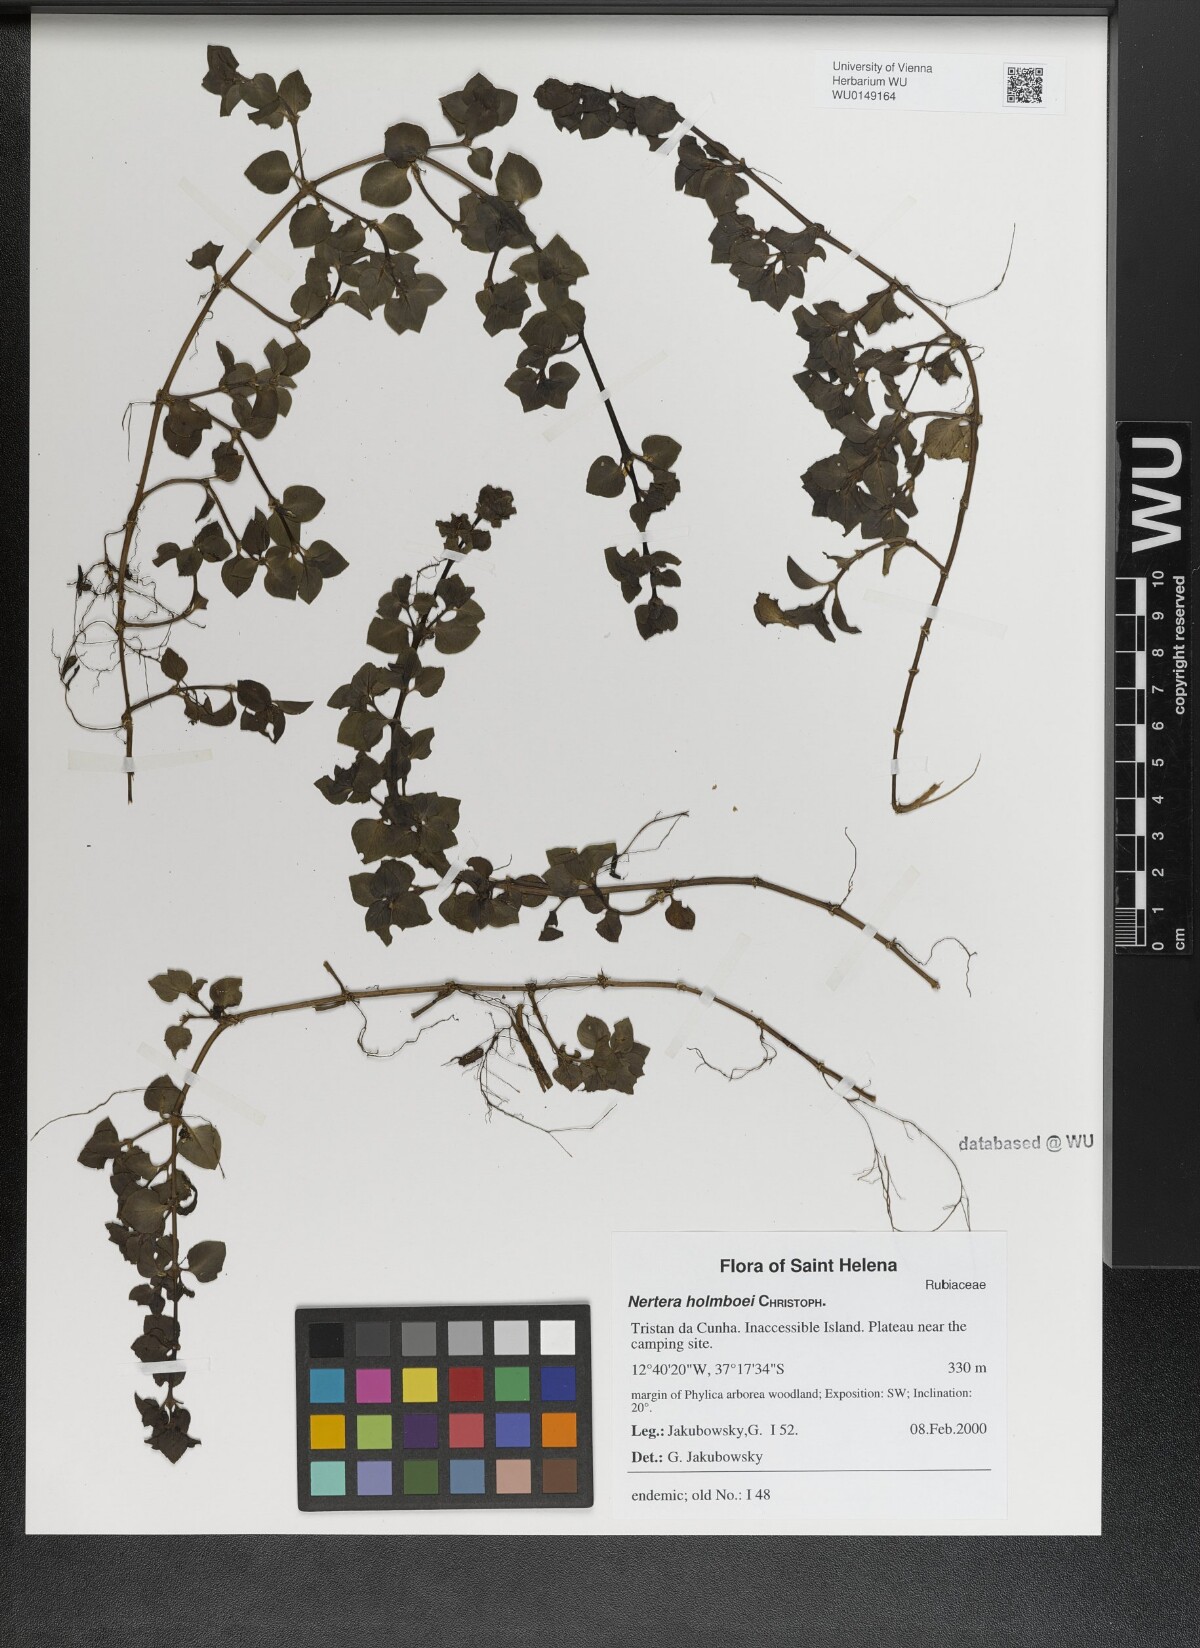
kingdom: Plantae
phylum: Tracheophyta
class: Magnoliopsida
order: Gentianales
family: Rubiaceae
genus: Nertera
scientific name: Nertera holmboei
